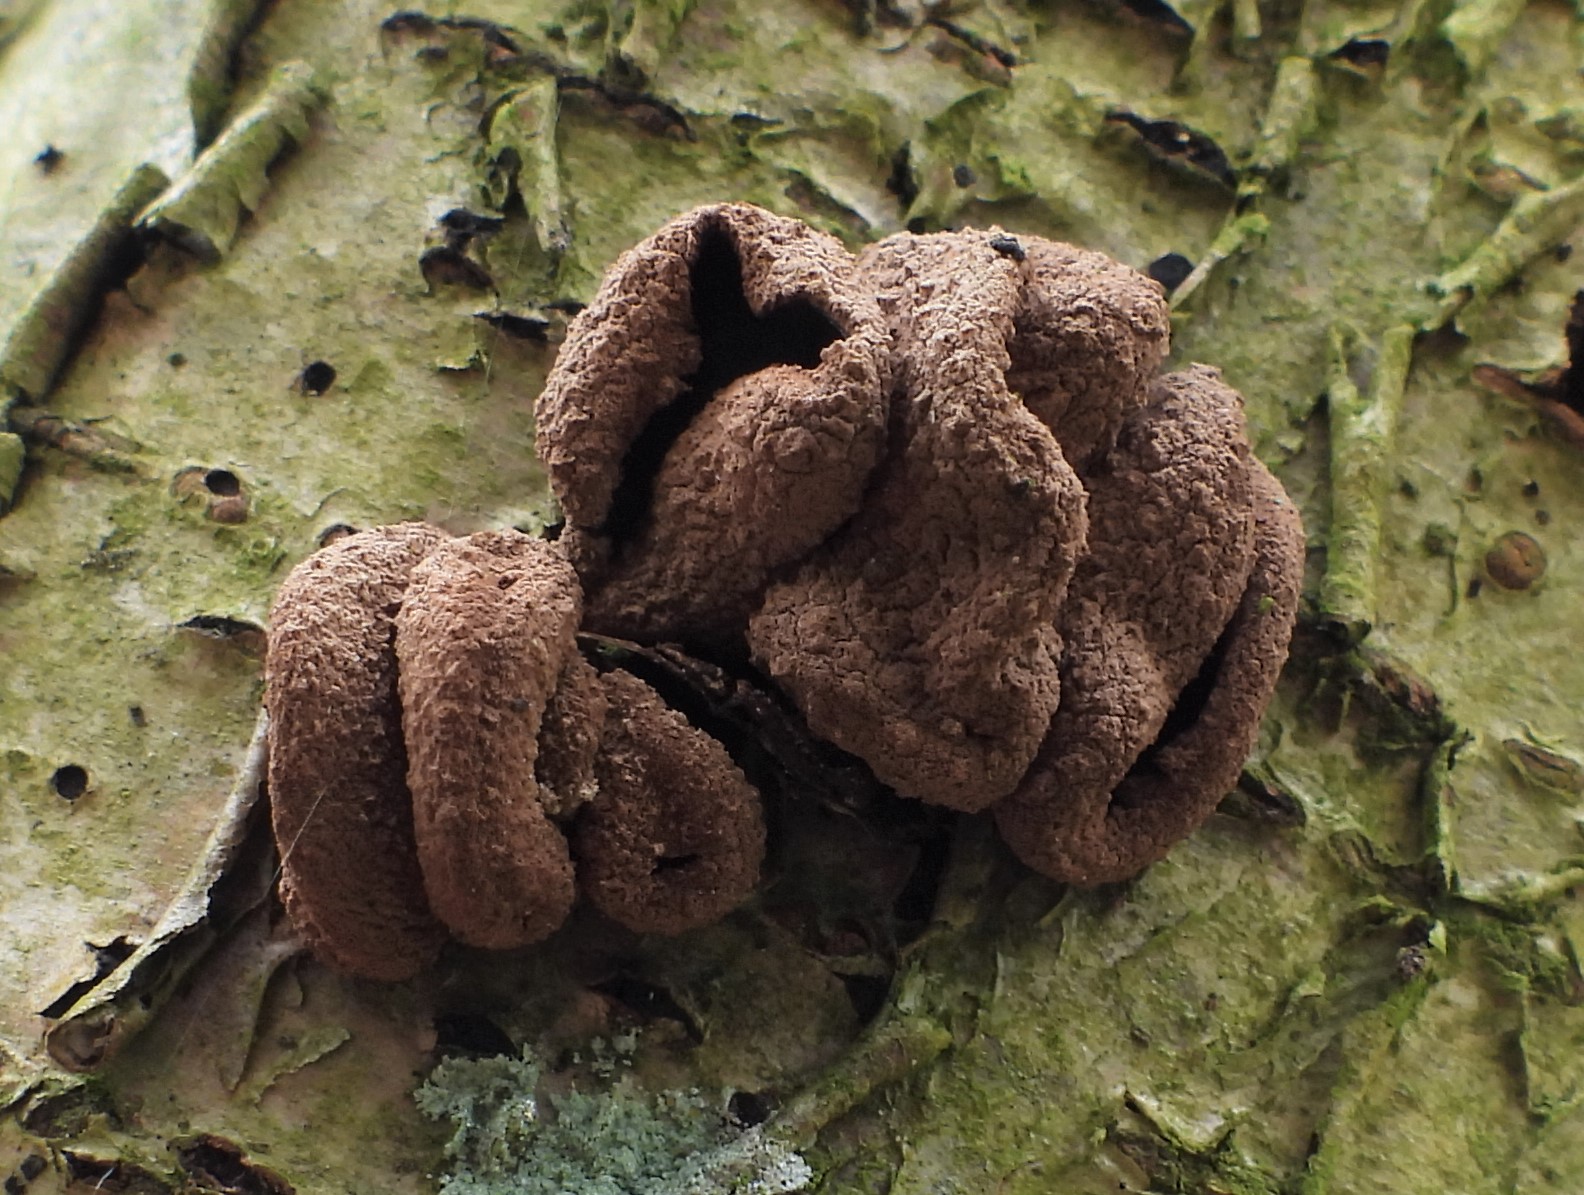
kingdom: Fungi
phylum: Ascomycota
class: Leotiomycetes
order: Helotiales
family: Cenangiaceae
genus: Encoelia
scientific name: Encoelia furfuracea
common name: hassel-læderskive
